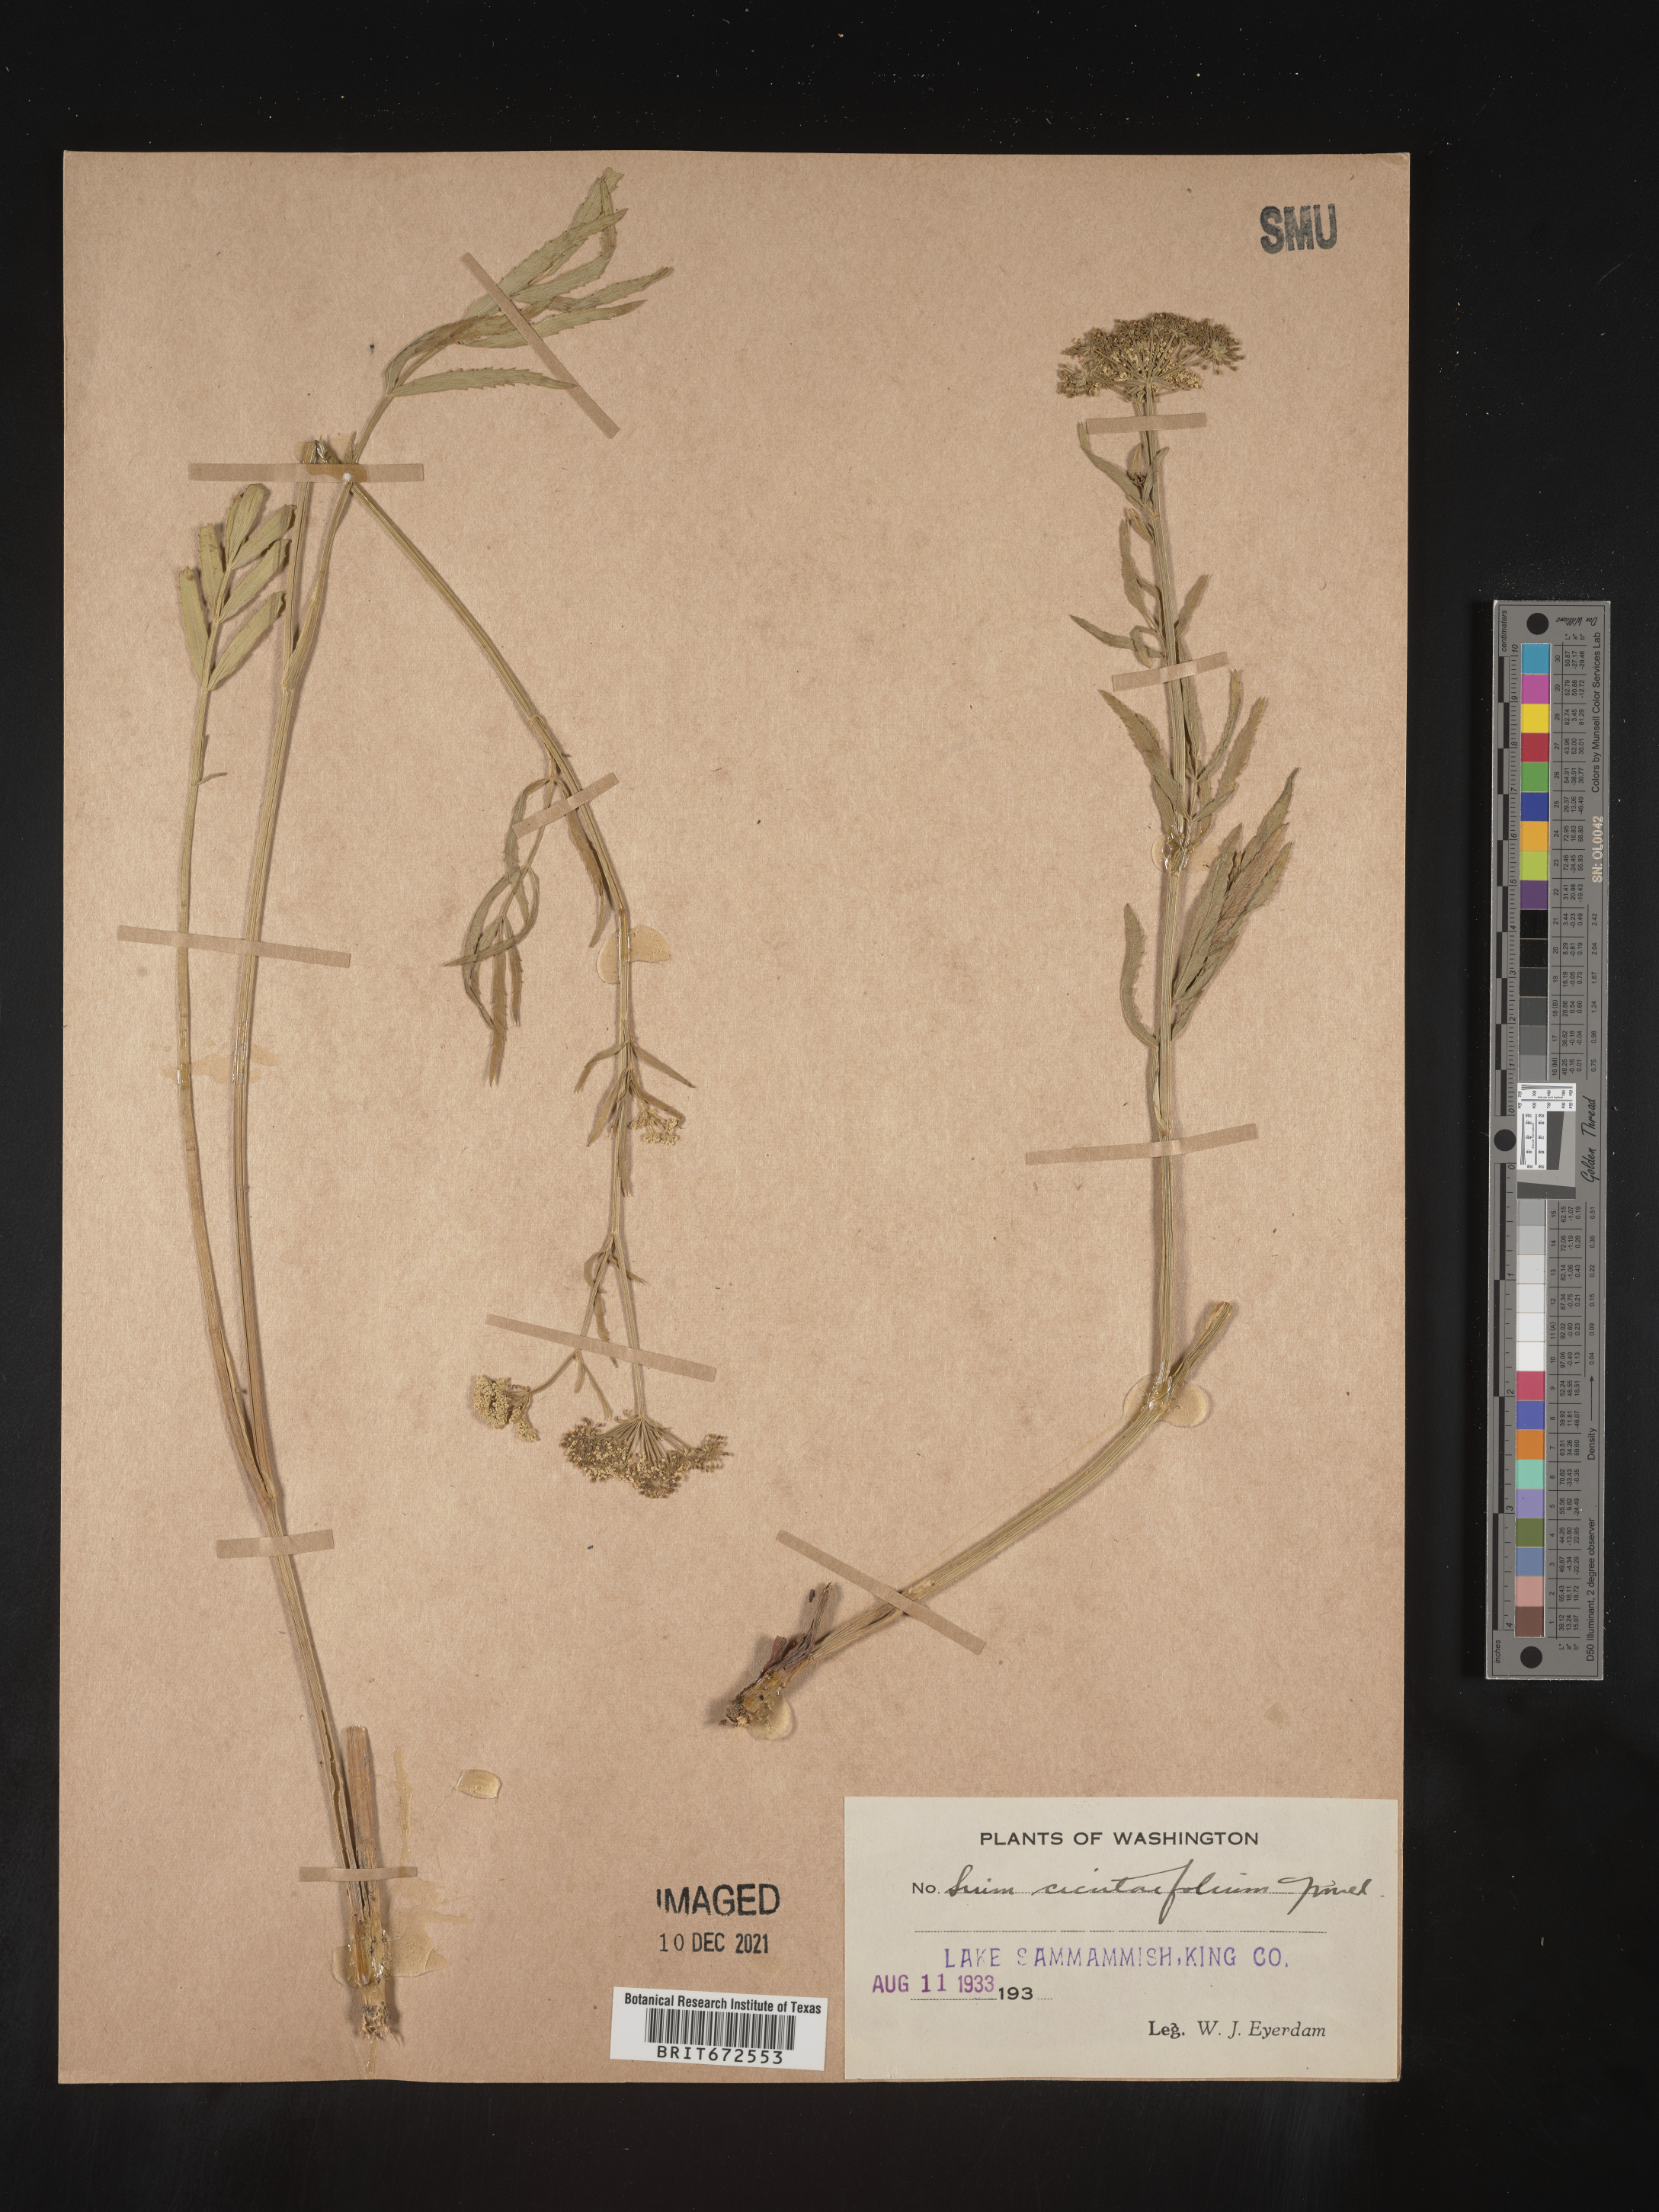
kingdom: Plantae
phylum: Tracheophyta
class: Magnoliopsida
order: Apiales
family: Apiaceae
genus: Sium
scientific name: Sium suave
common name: Hemlock water-parsnip
